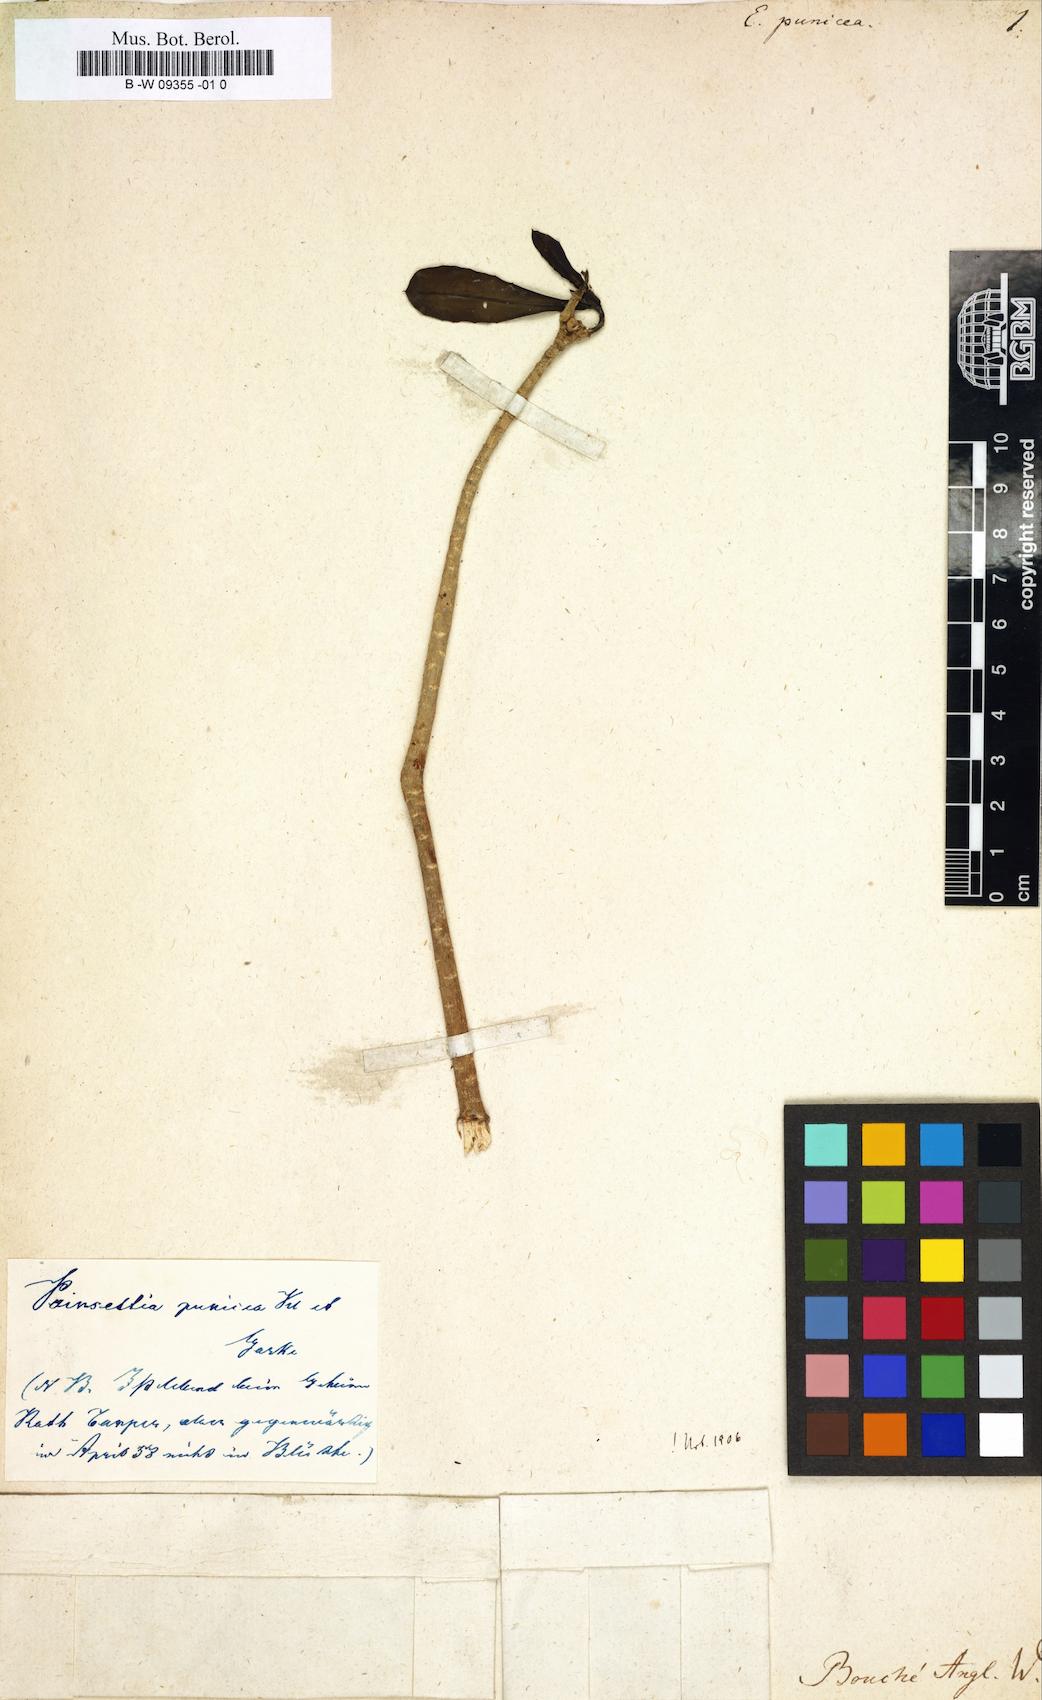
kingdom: Plantae
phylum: Tracheophyta
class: Magnoliopsida
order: Malpighiales
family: Euphorbiaceae
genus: Euphorbia
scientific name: Euphorbia punicea
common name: Vegetable-leather
